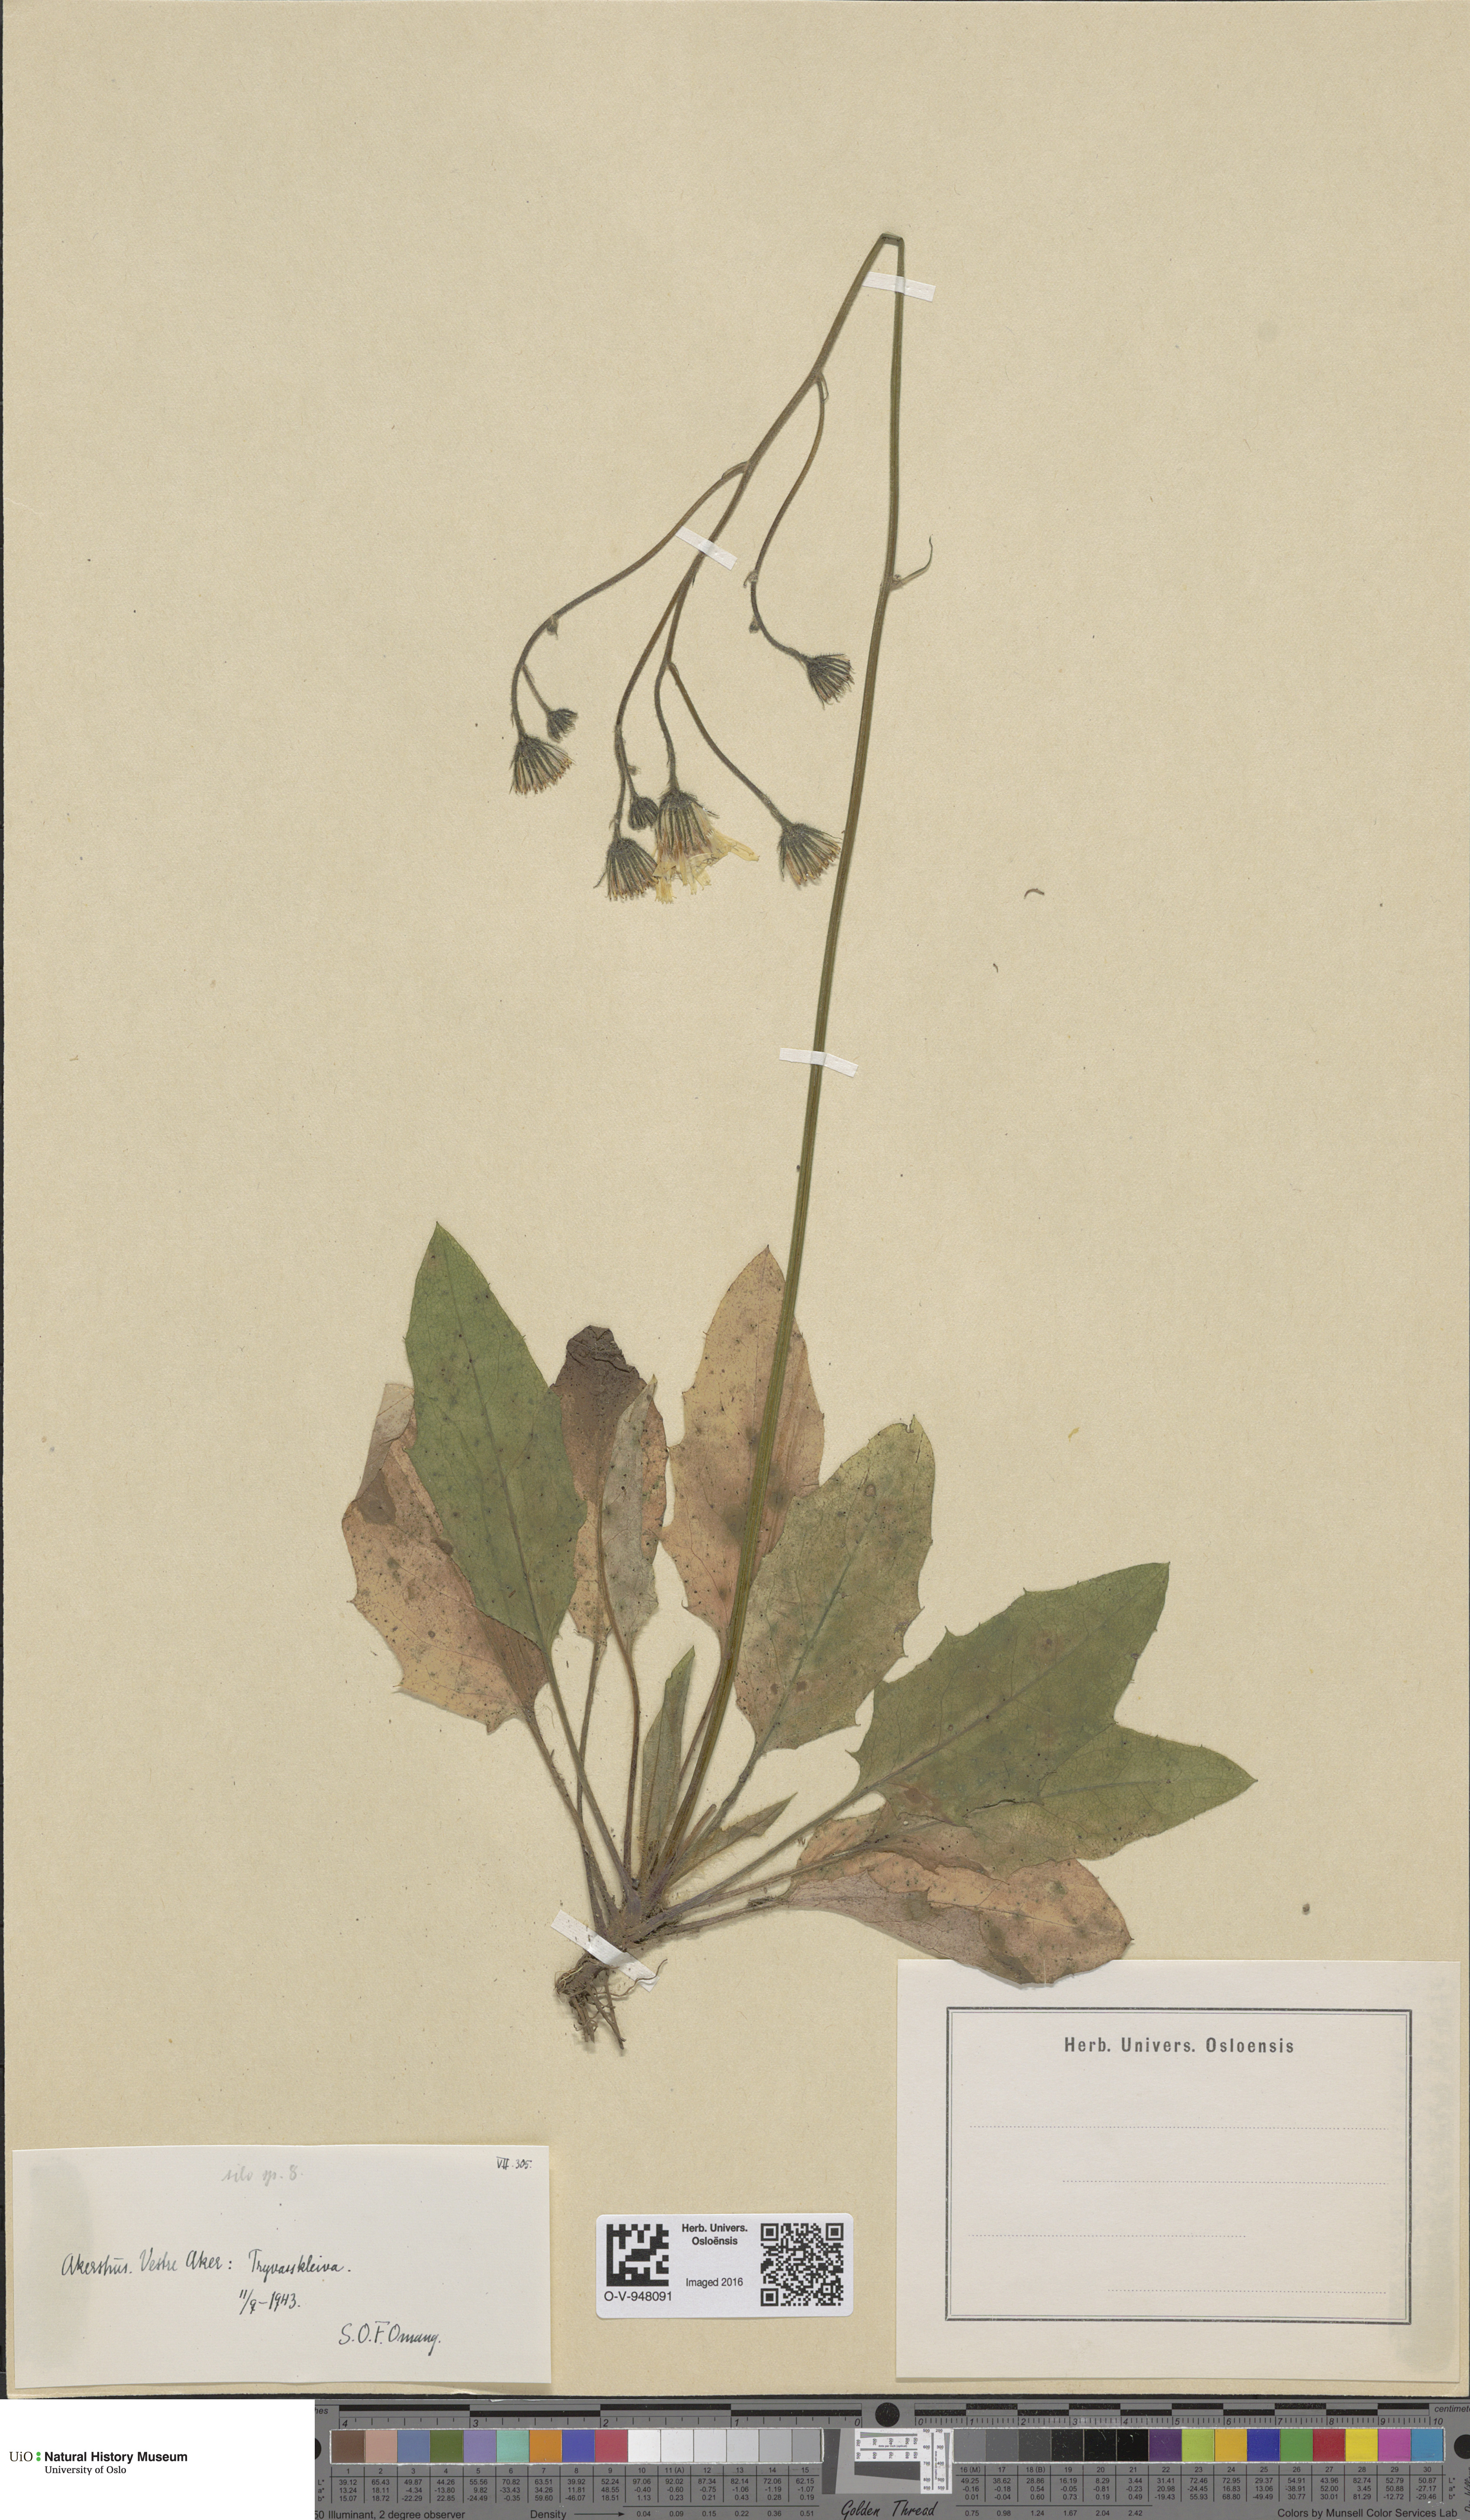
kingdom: Plantae
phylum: Tracheophyta
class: Magnoliopsida
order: Asterales
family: Asteraceae
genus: Hieracium
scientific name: Hieracium
